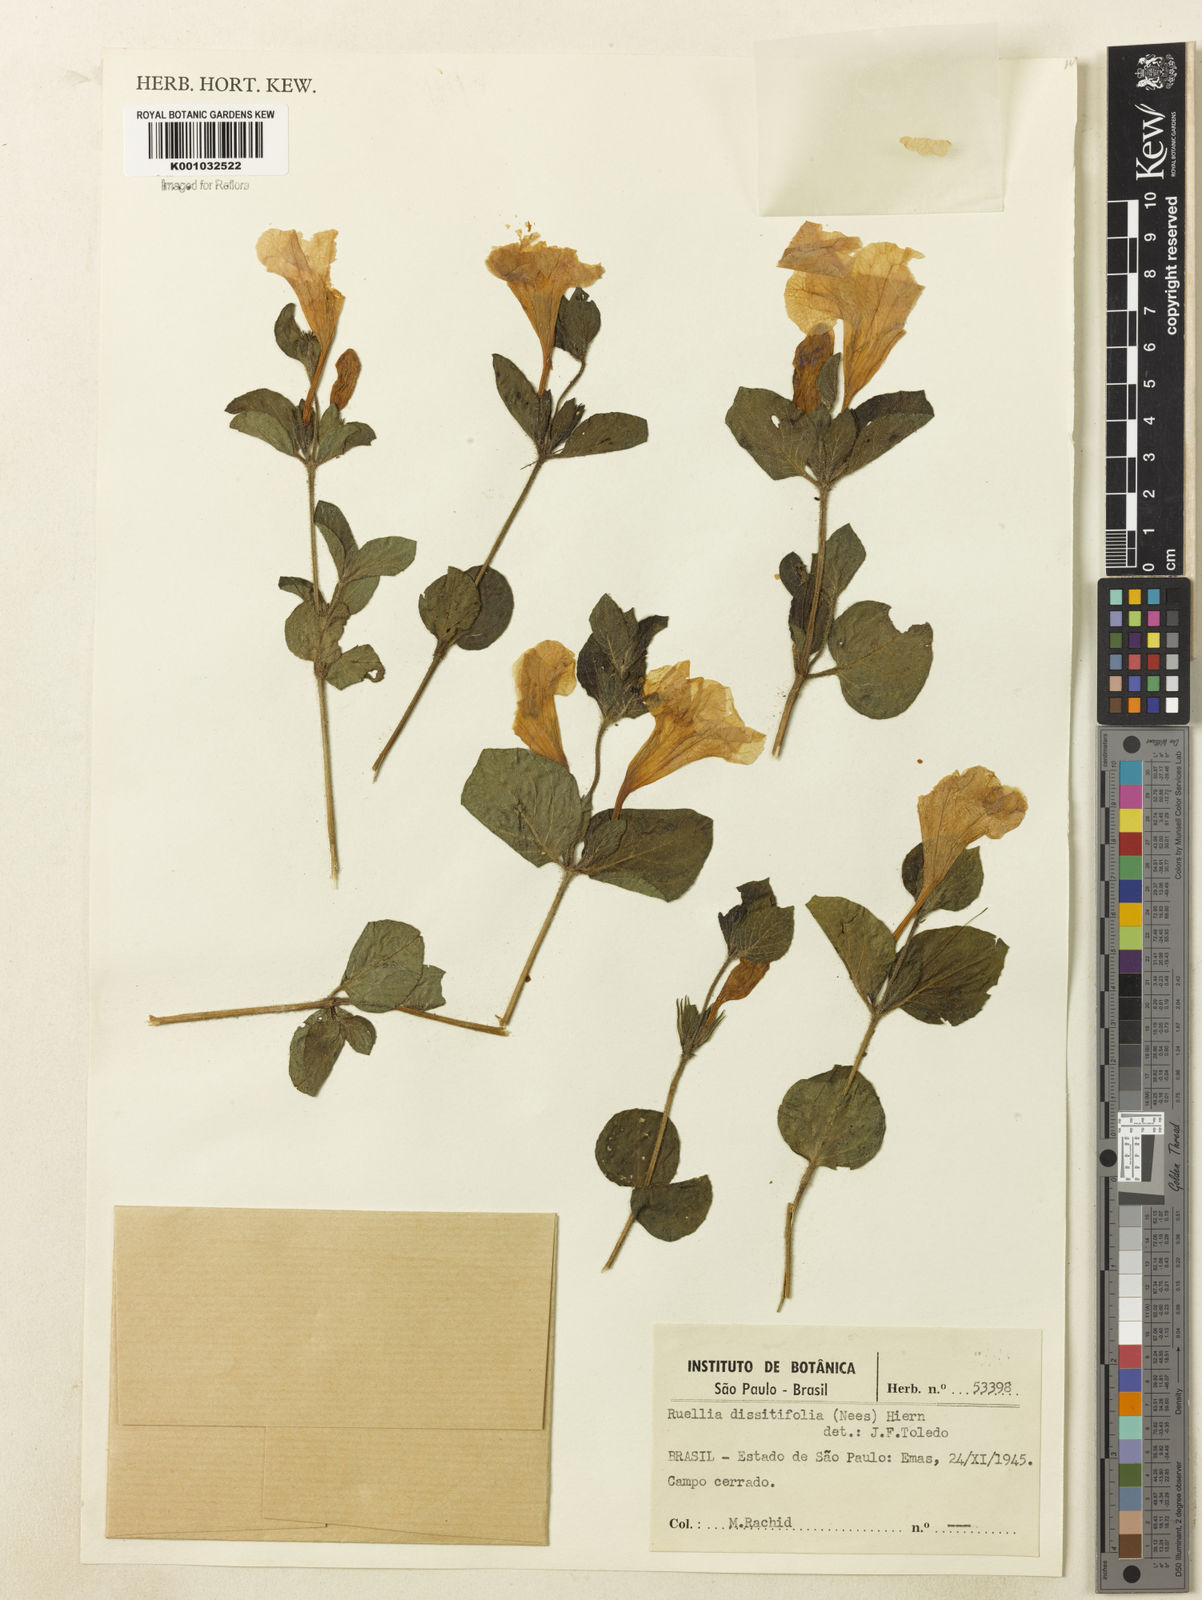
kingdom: Plantae
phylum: Tracheophyta
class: Magnoliopsida
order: Lamiales
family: Acanthaceae
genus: Ruellia
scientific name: Ruellia multifolia
